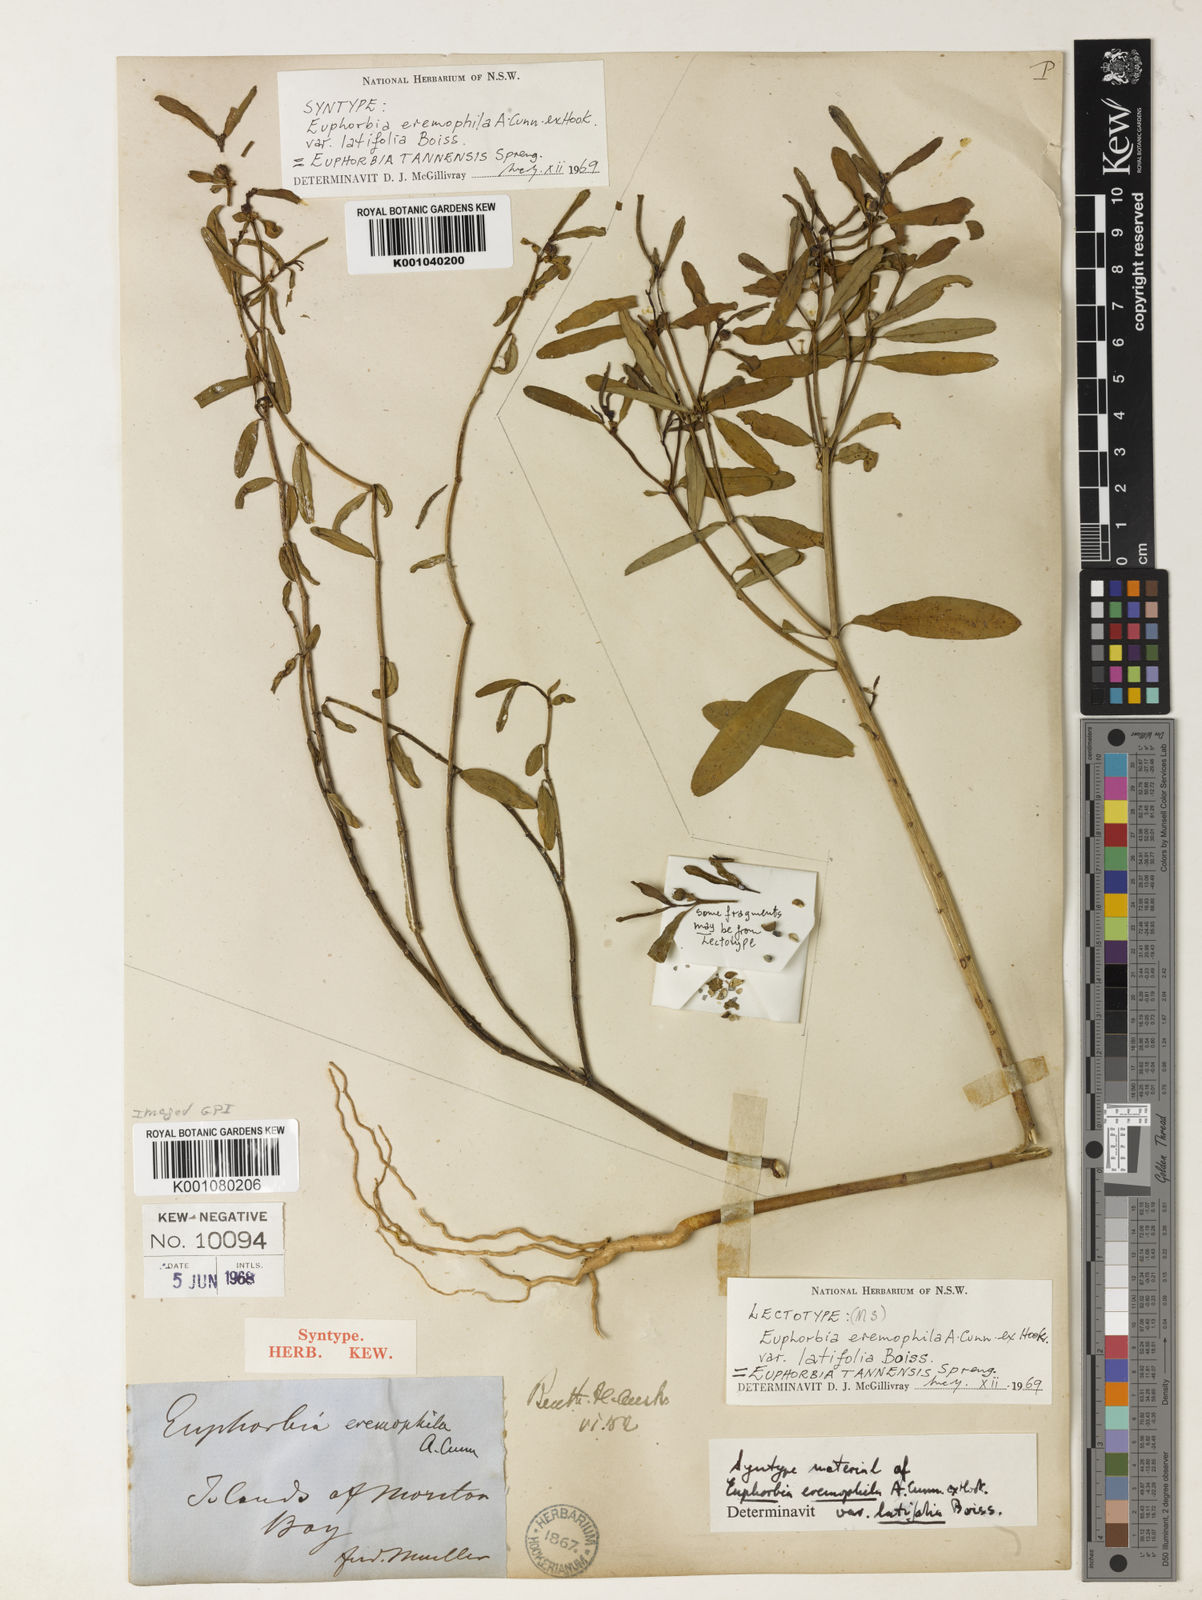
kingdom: Plantae
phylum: Tracheophyta
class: Magnoliopsida
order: Malpighiales
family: Euphorbiaceae
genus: Euphorbia
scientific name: Euphorbia
